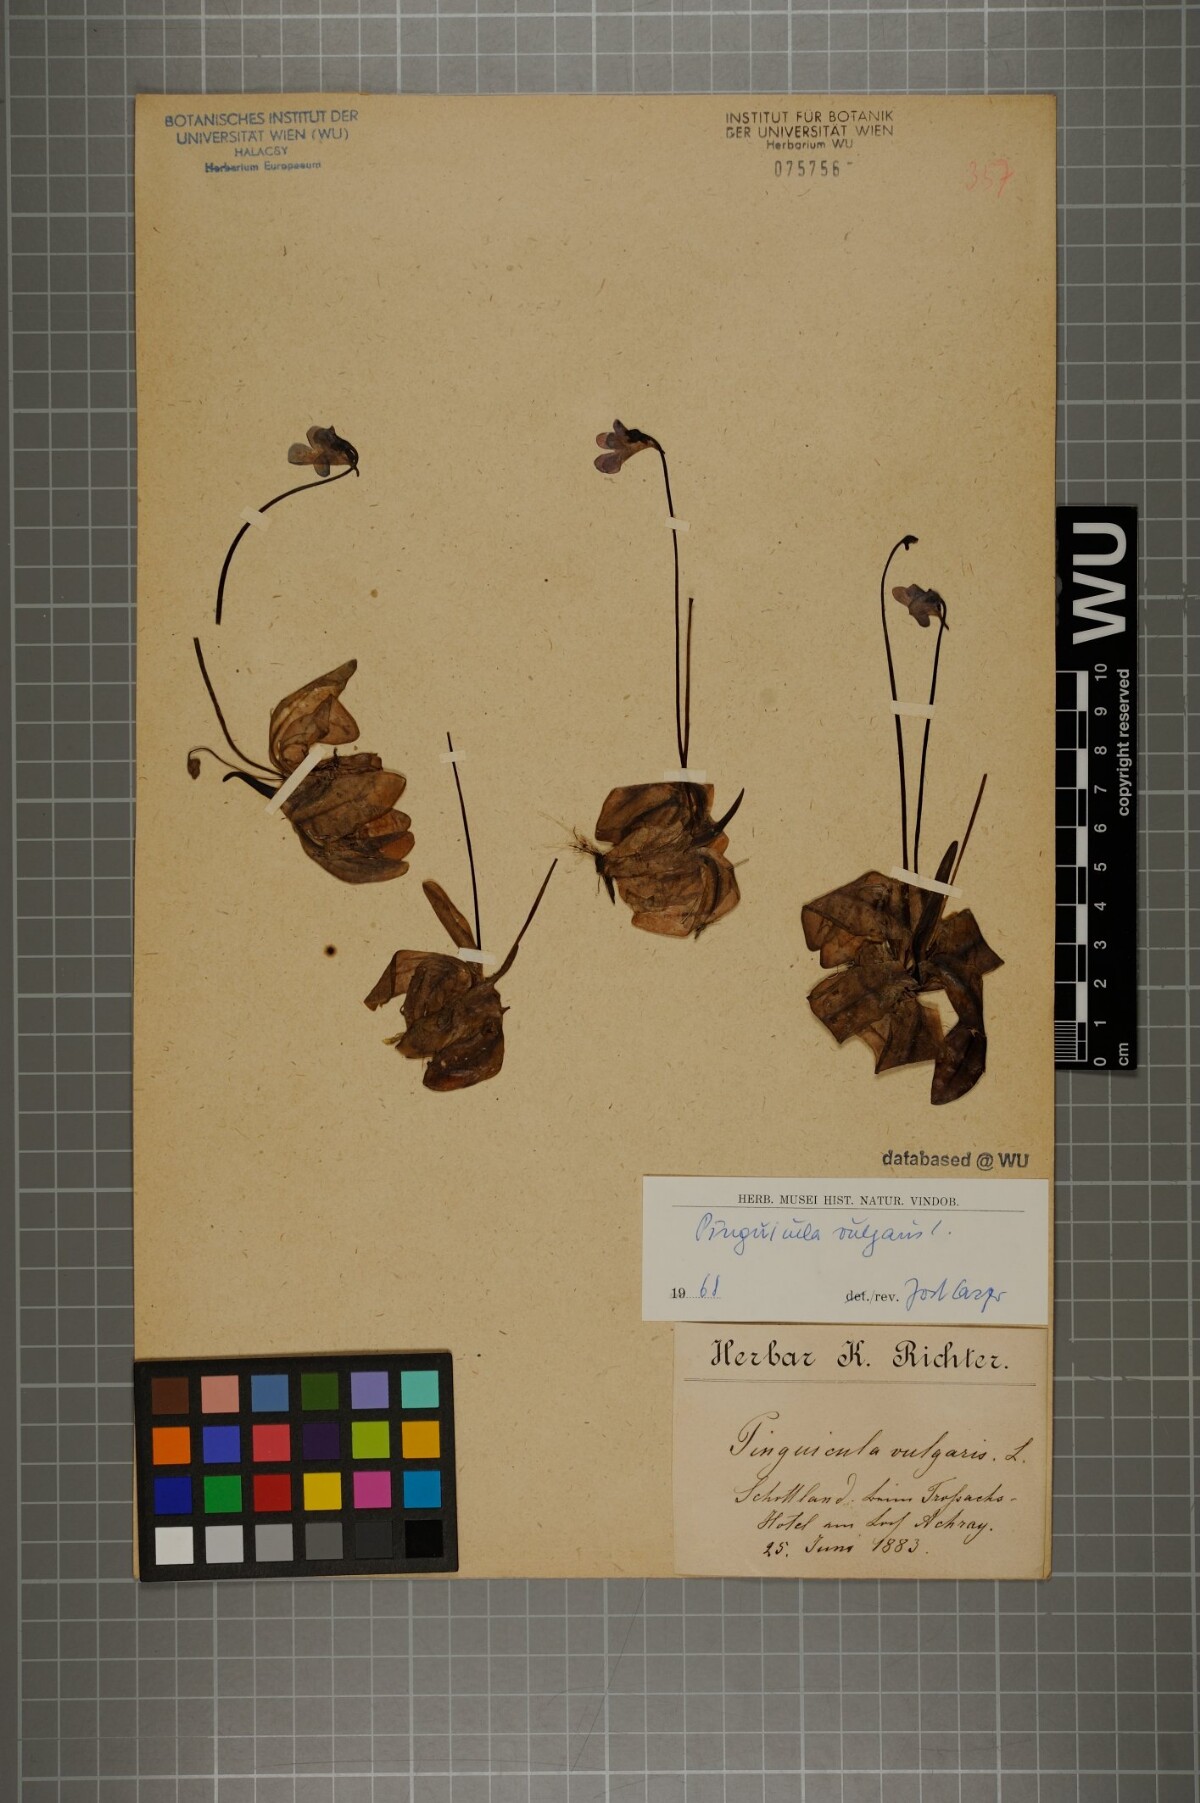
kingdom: Plantae
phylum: Tracheophyta
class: Magnoliopsida
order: Lamiales
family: Lentibulariaceae
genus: Pinguicula
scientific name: Pinguicula vulgaris
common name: Common butterwort
